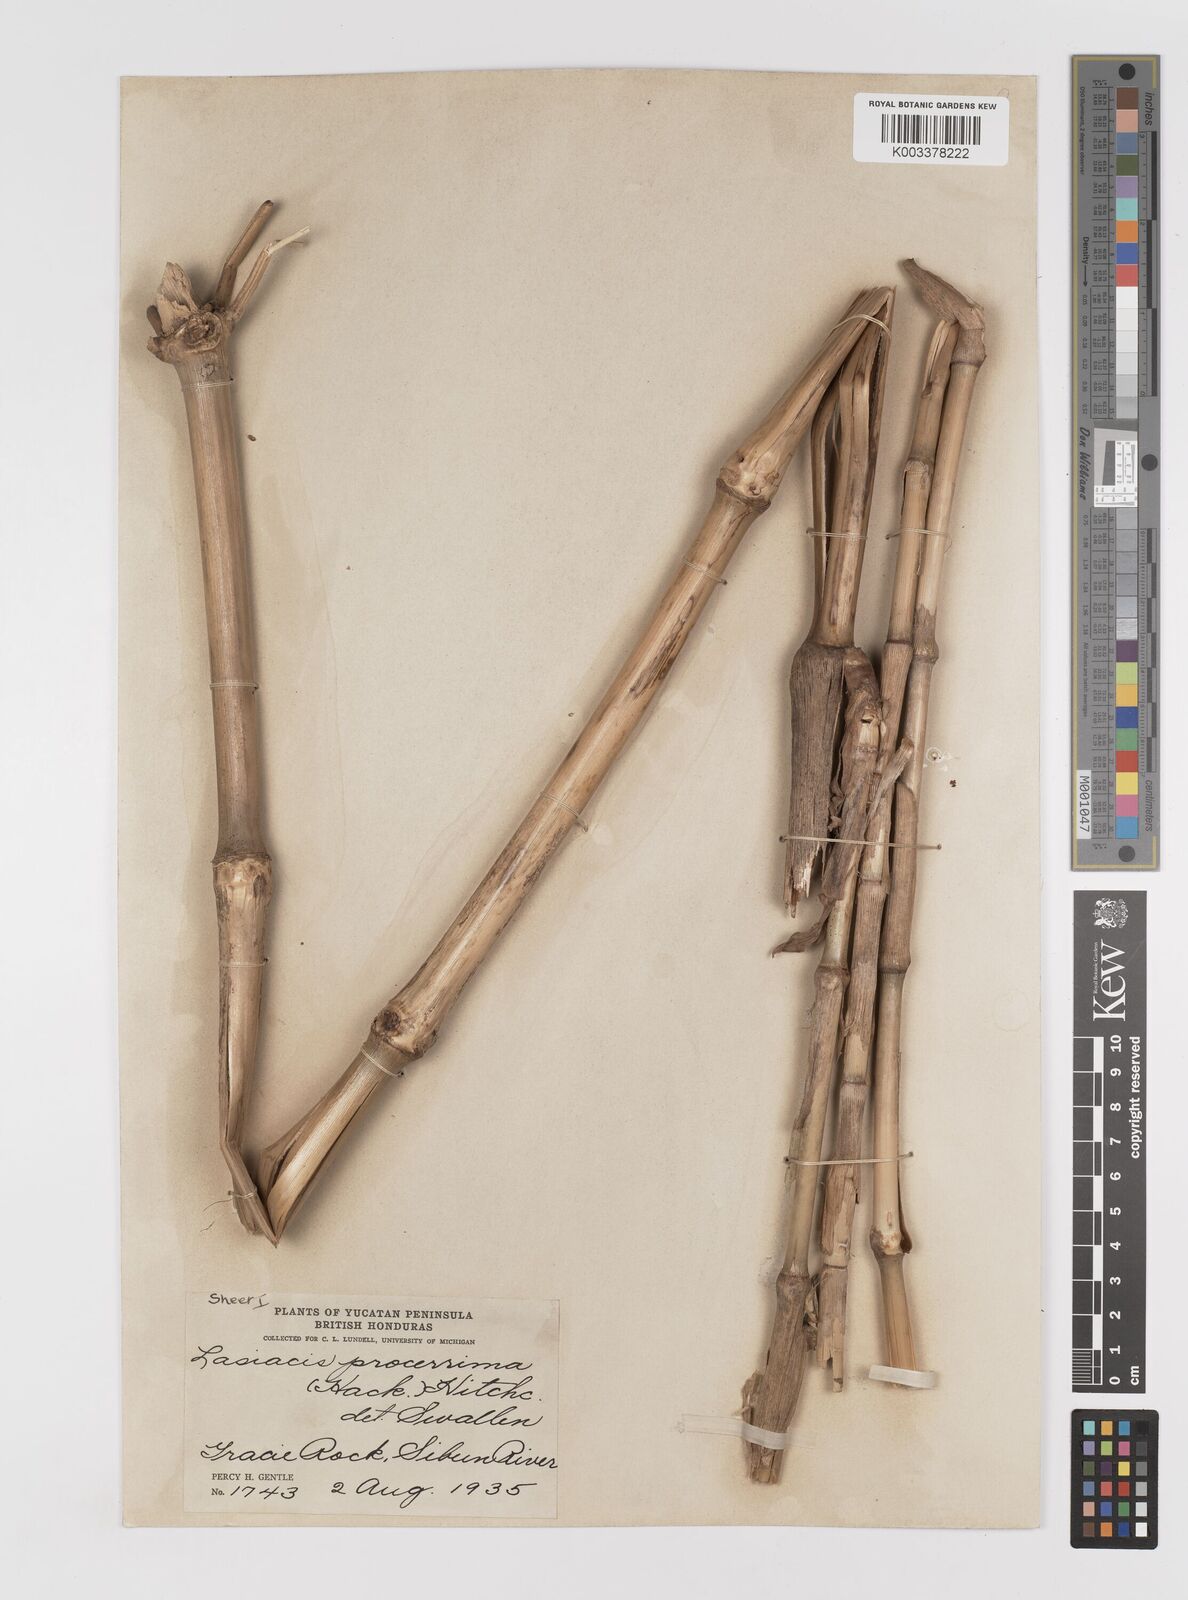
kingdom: Plantae
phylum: Tracheophyta
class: Liliopsida
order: Poales
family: Poaceae
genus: Lasiacis
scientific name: Lasiacis procerrima
